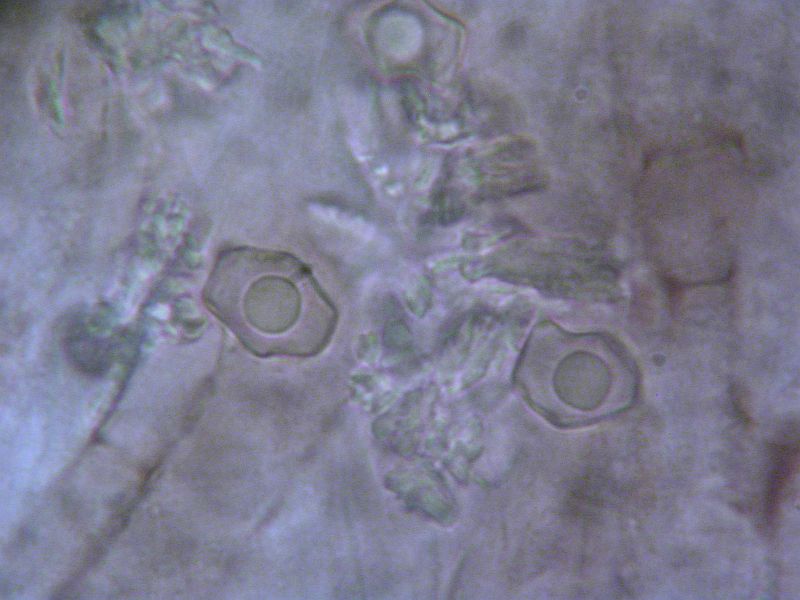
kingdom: Fungi
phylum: Basidiomycota
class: Agaricomycetes
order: Agaricales
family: Entolomataceae
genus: Entoloma
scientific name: Entoloma
